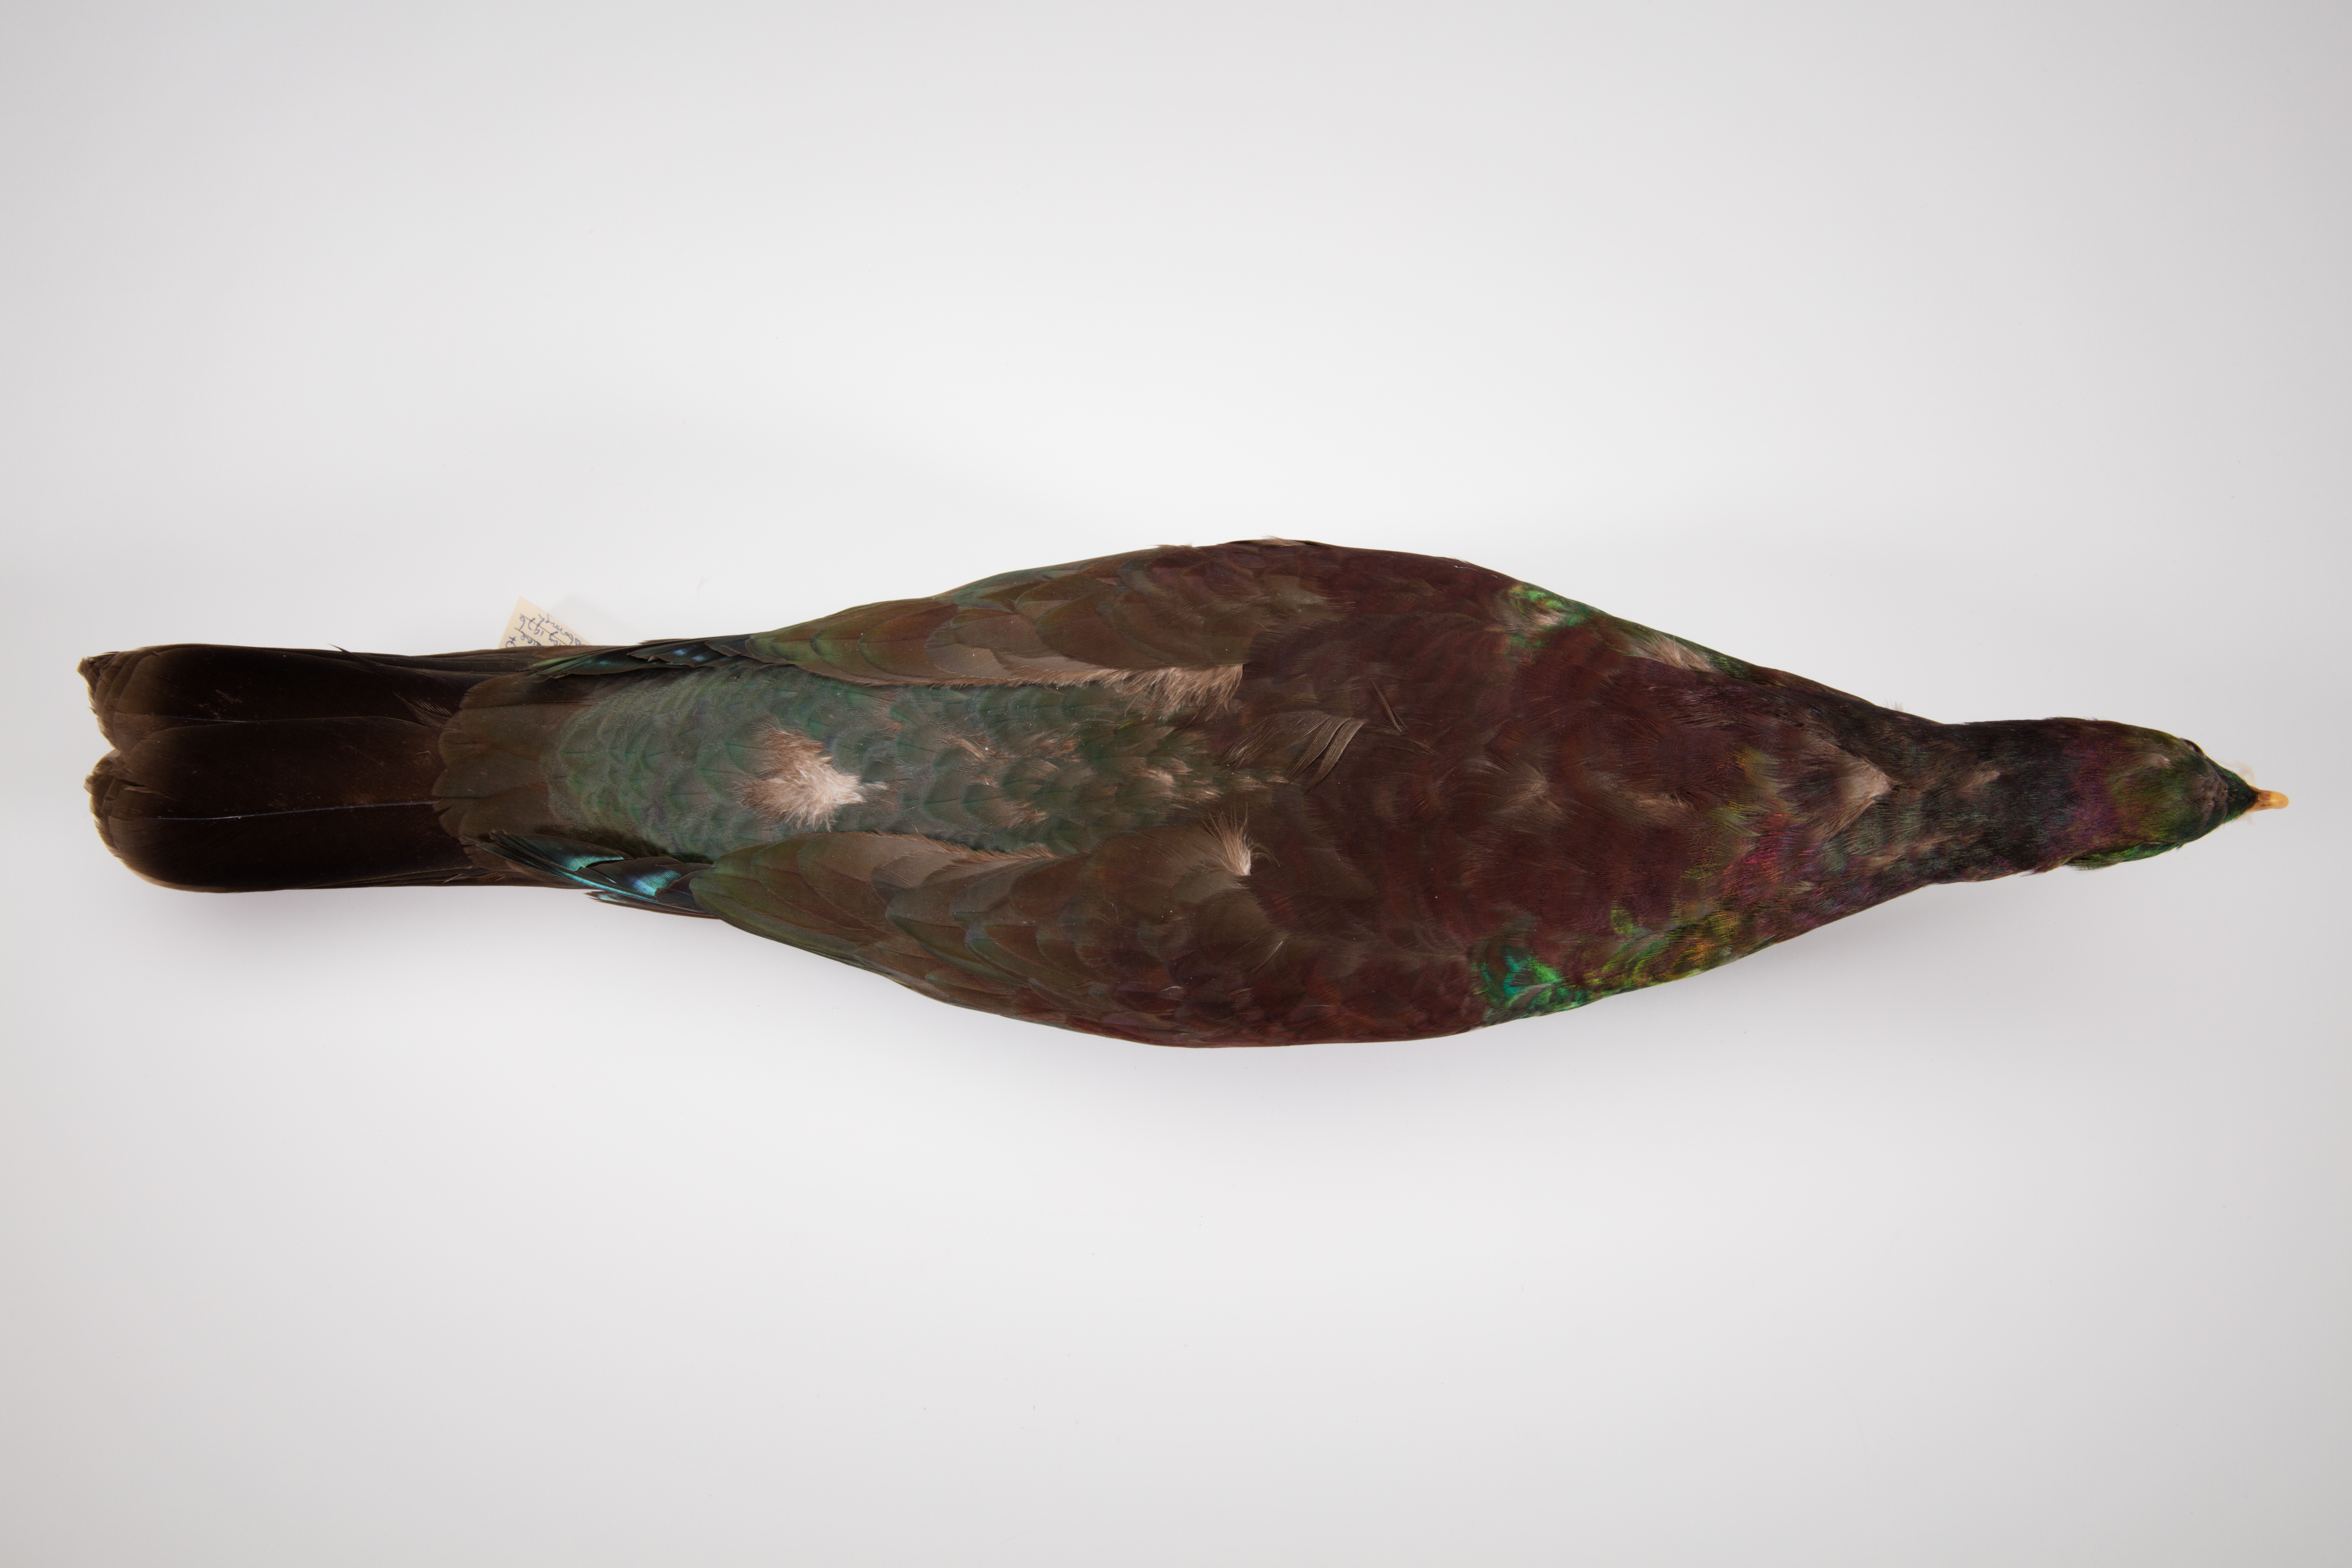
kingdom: Animalia
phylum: Chordata
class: Aves
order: Columbiformes
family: Columbidae
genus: Hemiphaga
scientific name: Hemiphaga novaeseelandiae
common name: New zealand pigeon
